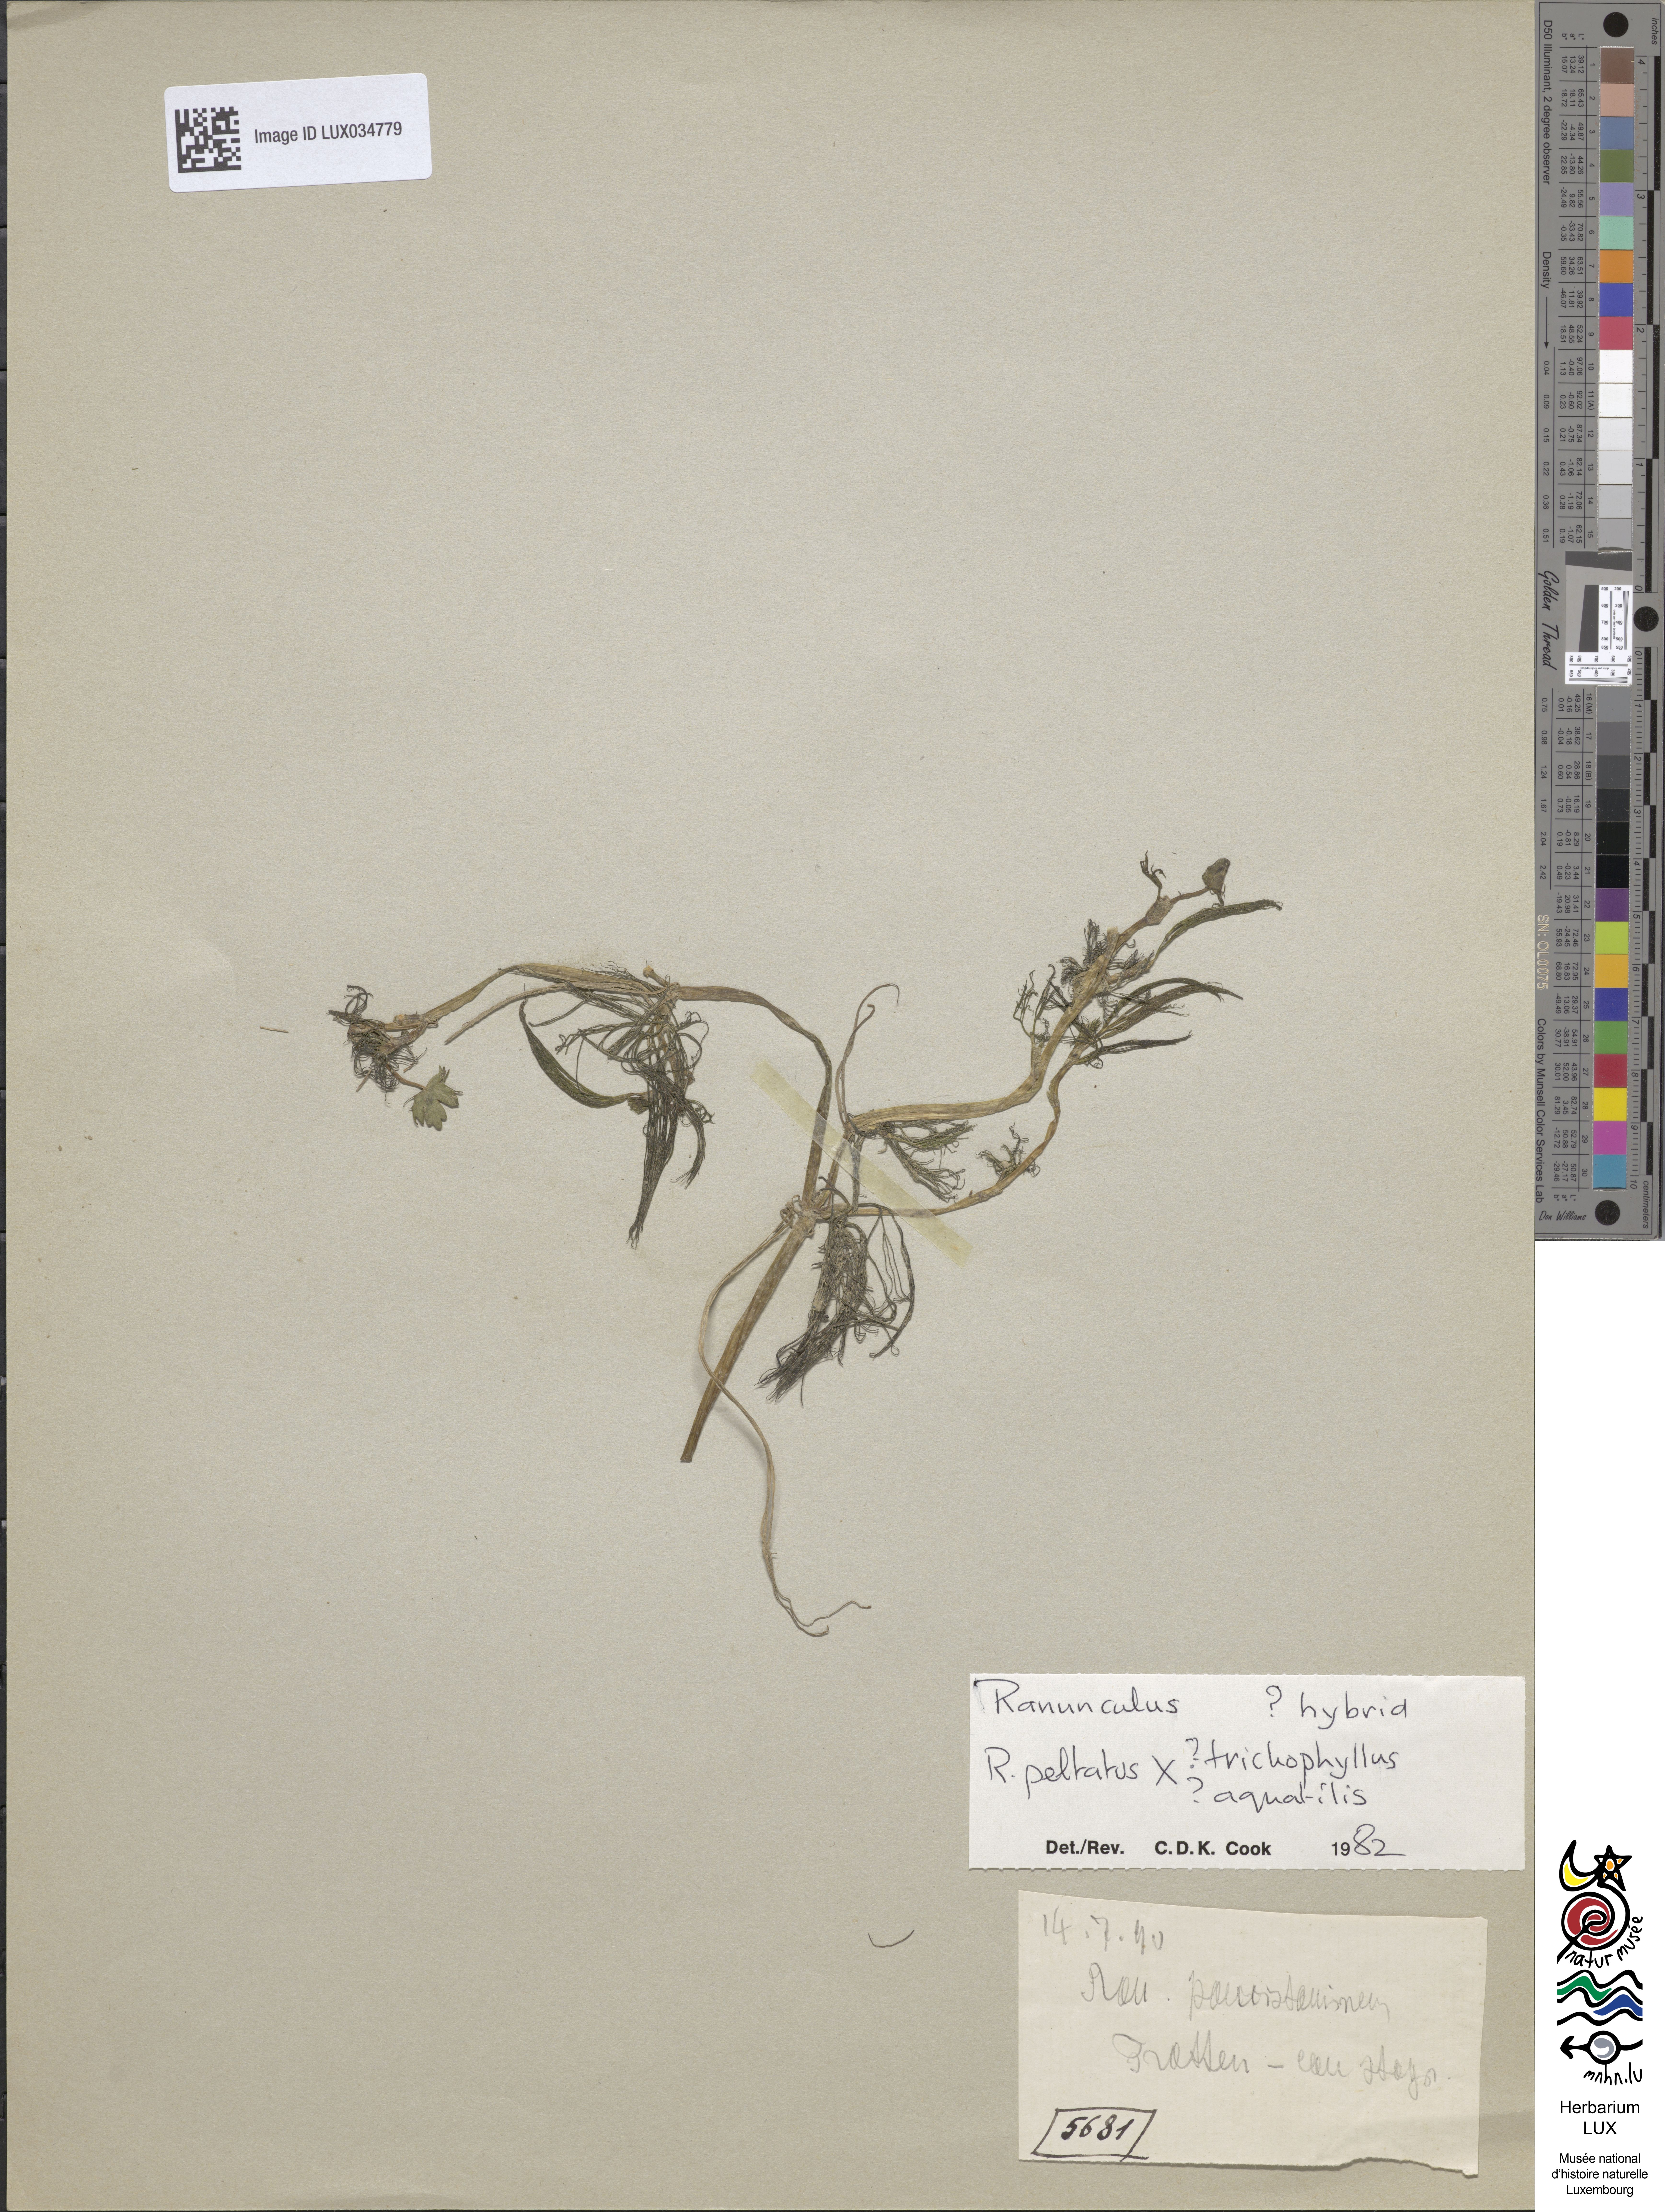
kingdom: Plantae
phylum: Tracheophyta
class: Magnoliopsida
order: Ranunculales
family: Ranunculaceae
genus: Ranunculus
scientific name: Ranunculus
